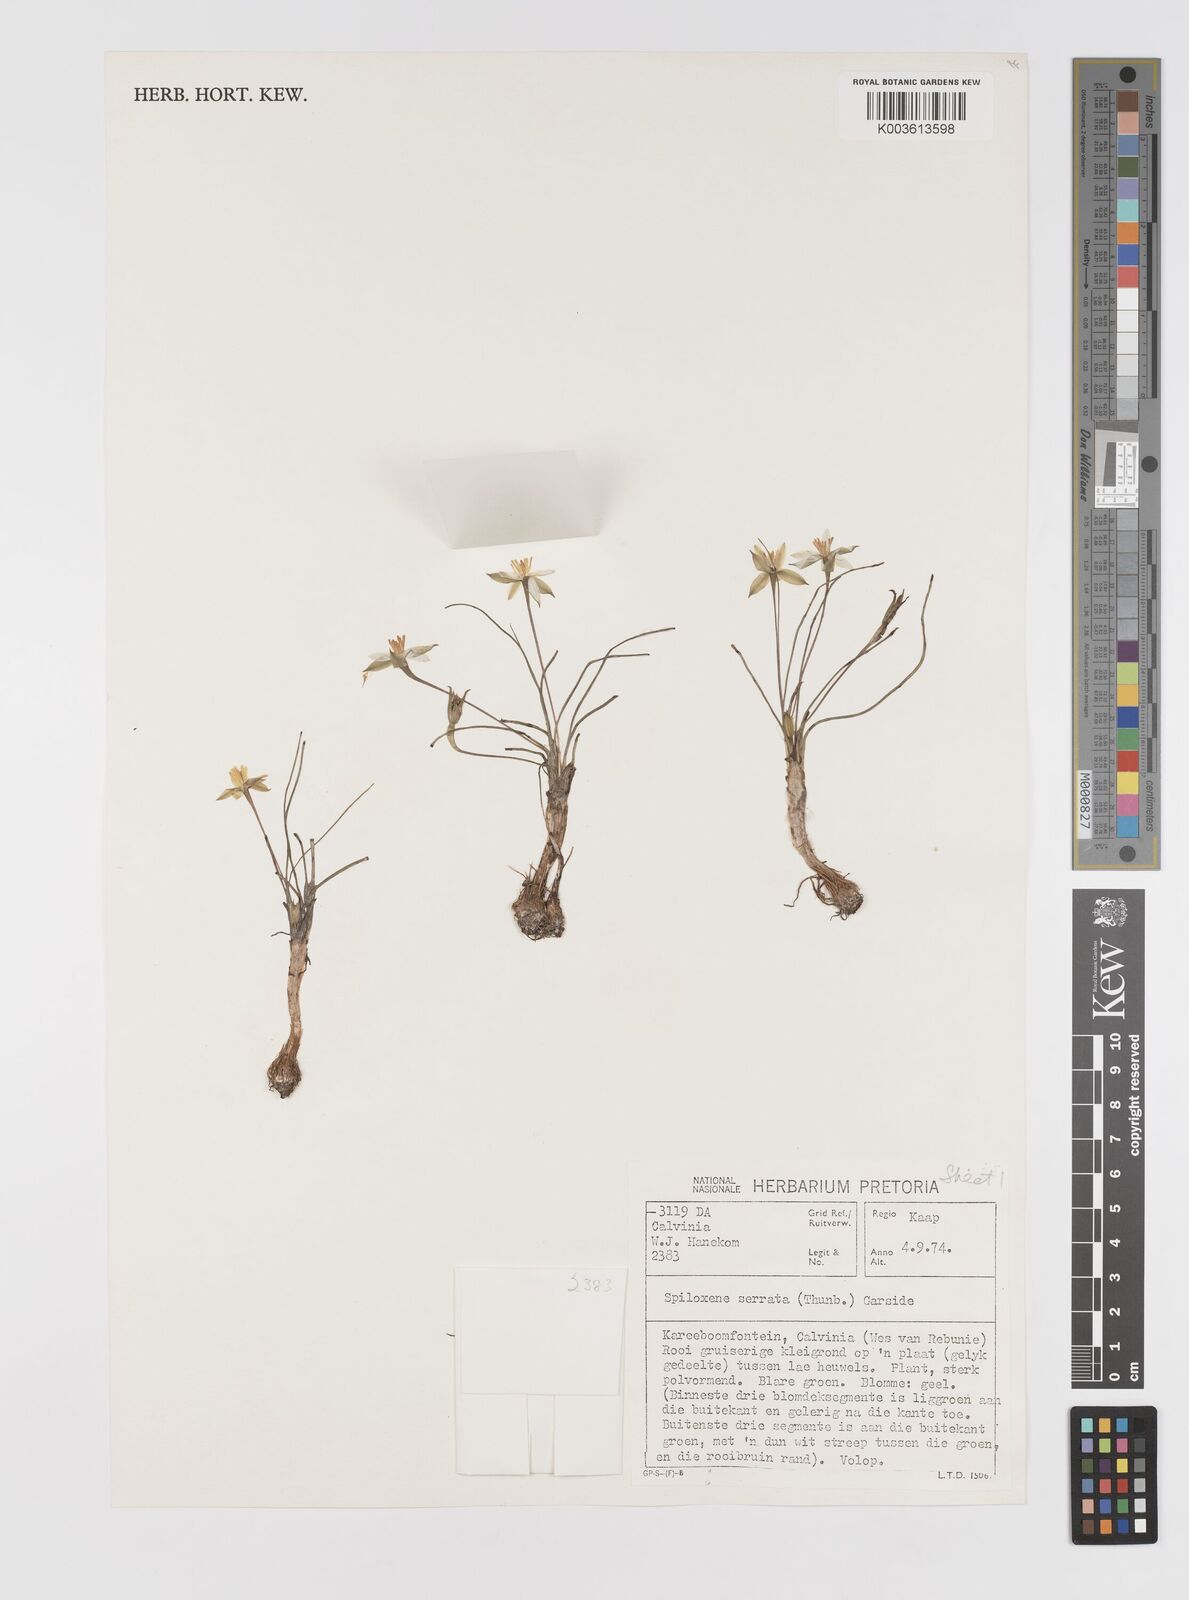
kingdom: Plantae
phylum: Tracheophyta
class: Liliopsida
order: Asparagales
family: Hypoxidaceae
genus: Pauridia
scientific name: Pauridia serrata
